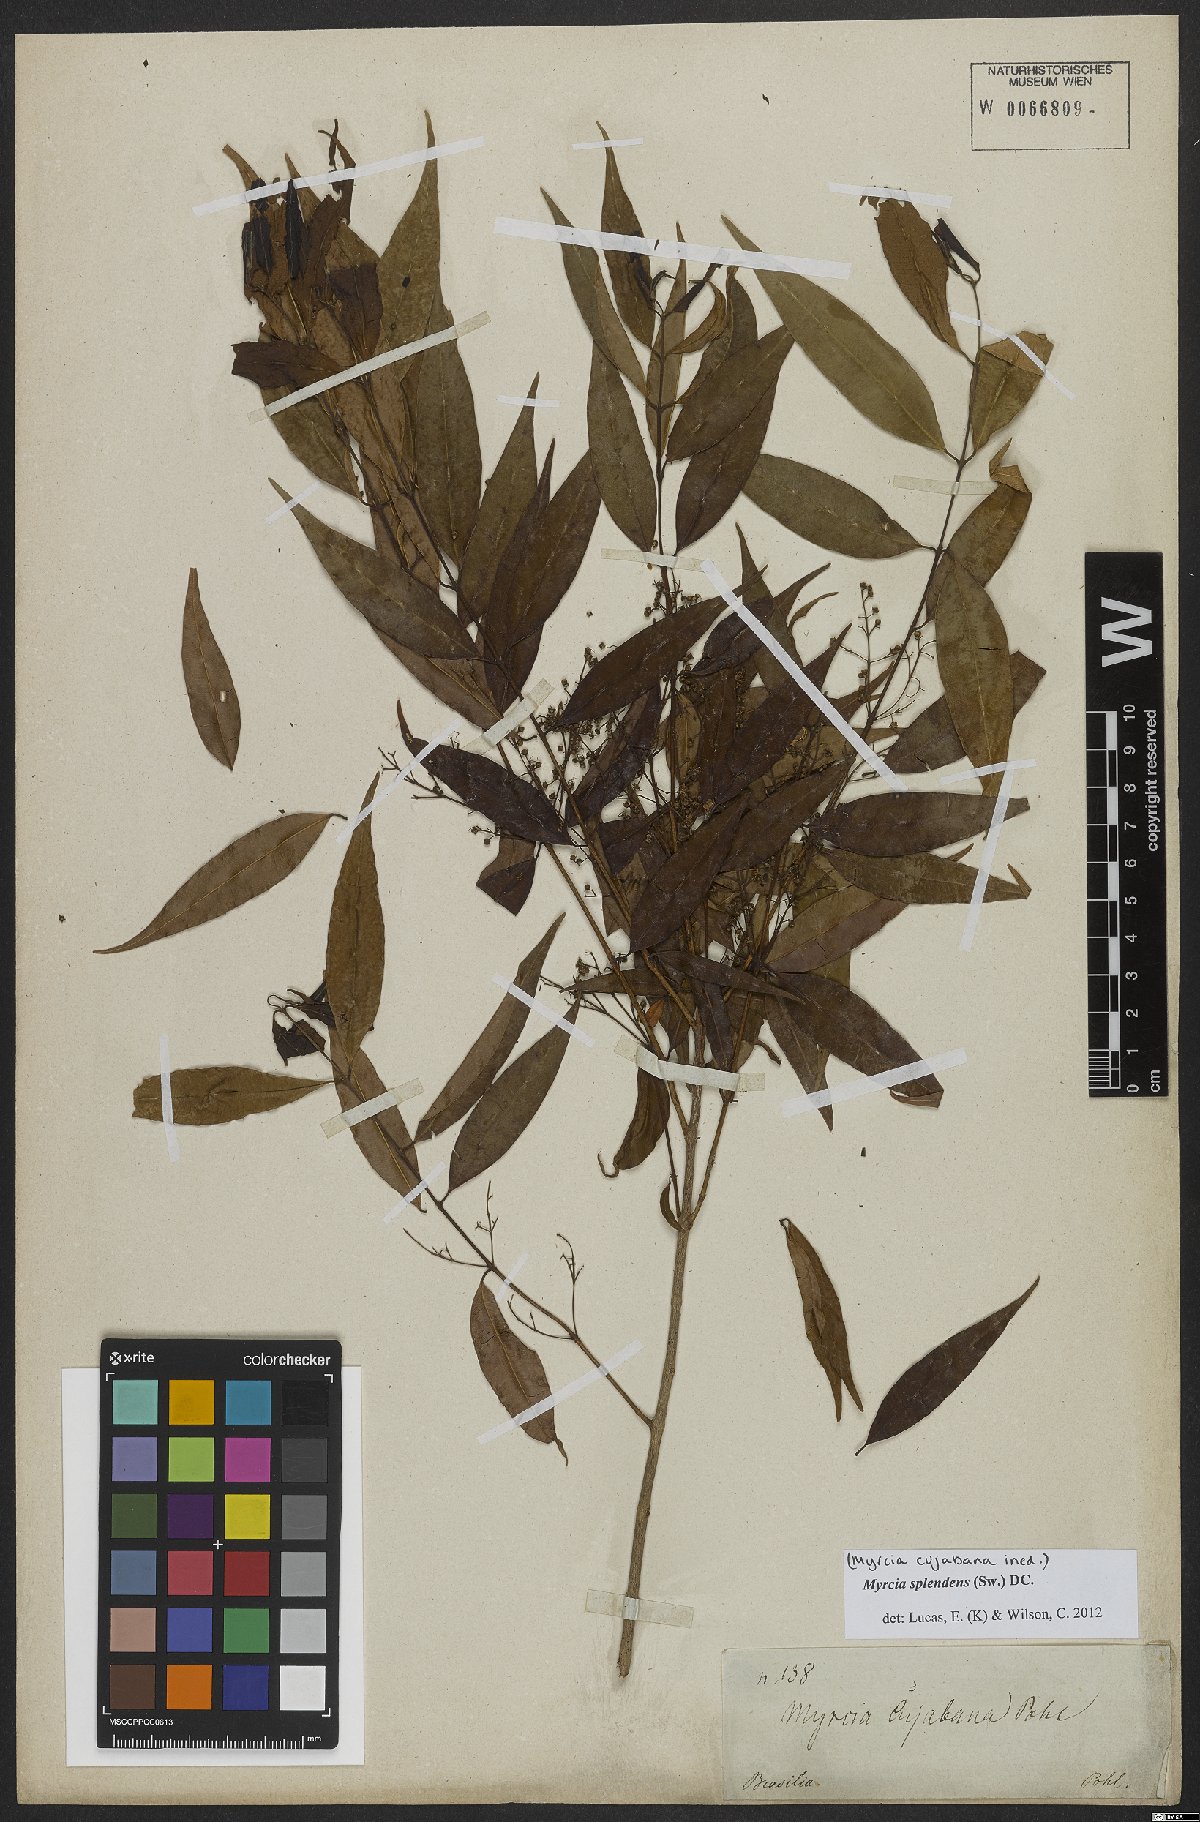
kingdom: Plantae
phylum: Tracheophyta
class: Magnoliopsida
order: Myrtales
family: Myrtaceae
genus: Myrcia
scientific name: Myrcia splendens
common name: Surinam cherry
